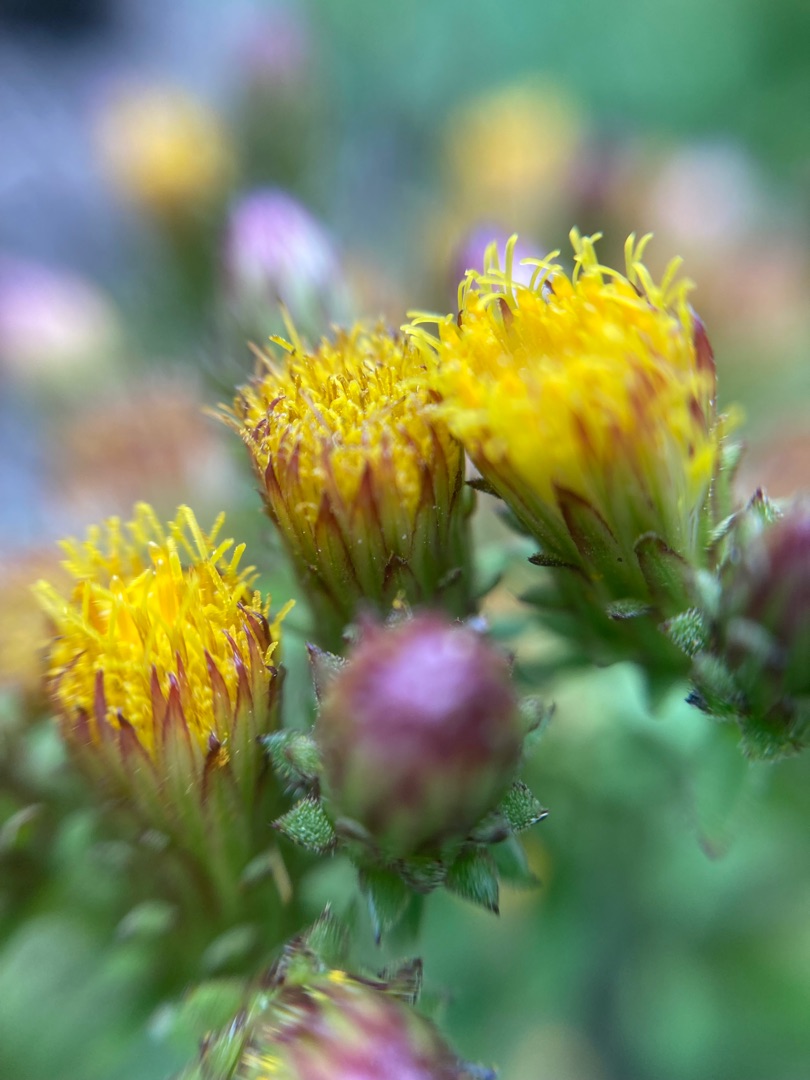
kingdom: Plantae
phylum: Tracheophyta
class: Magnoliopsida
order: Asterales
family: Asteraceae
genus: Pentanema
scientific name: Pentanema squarrosum
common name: Trekløft-alant
